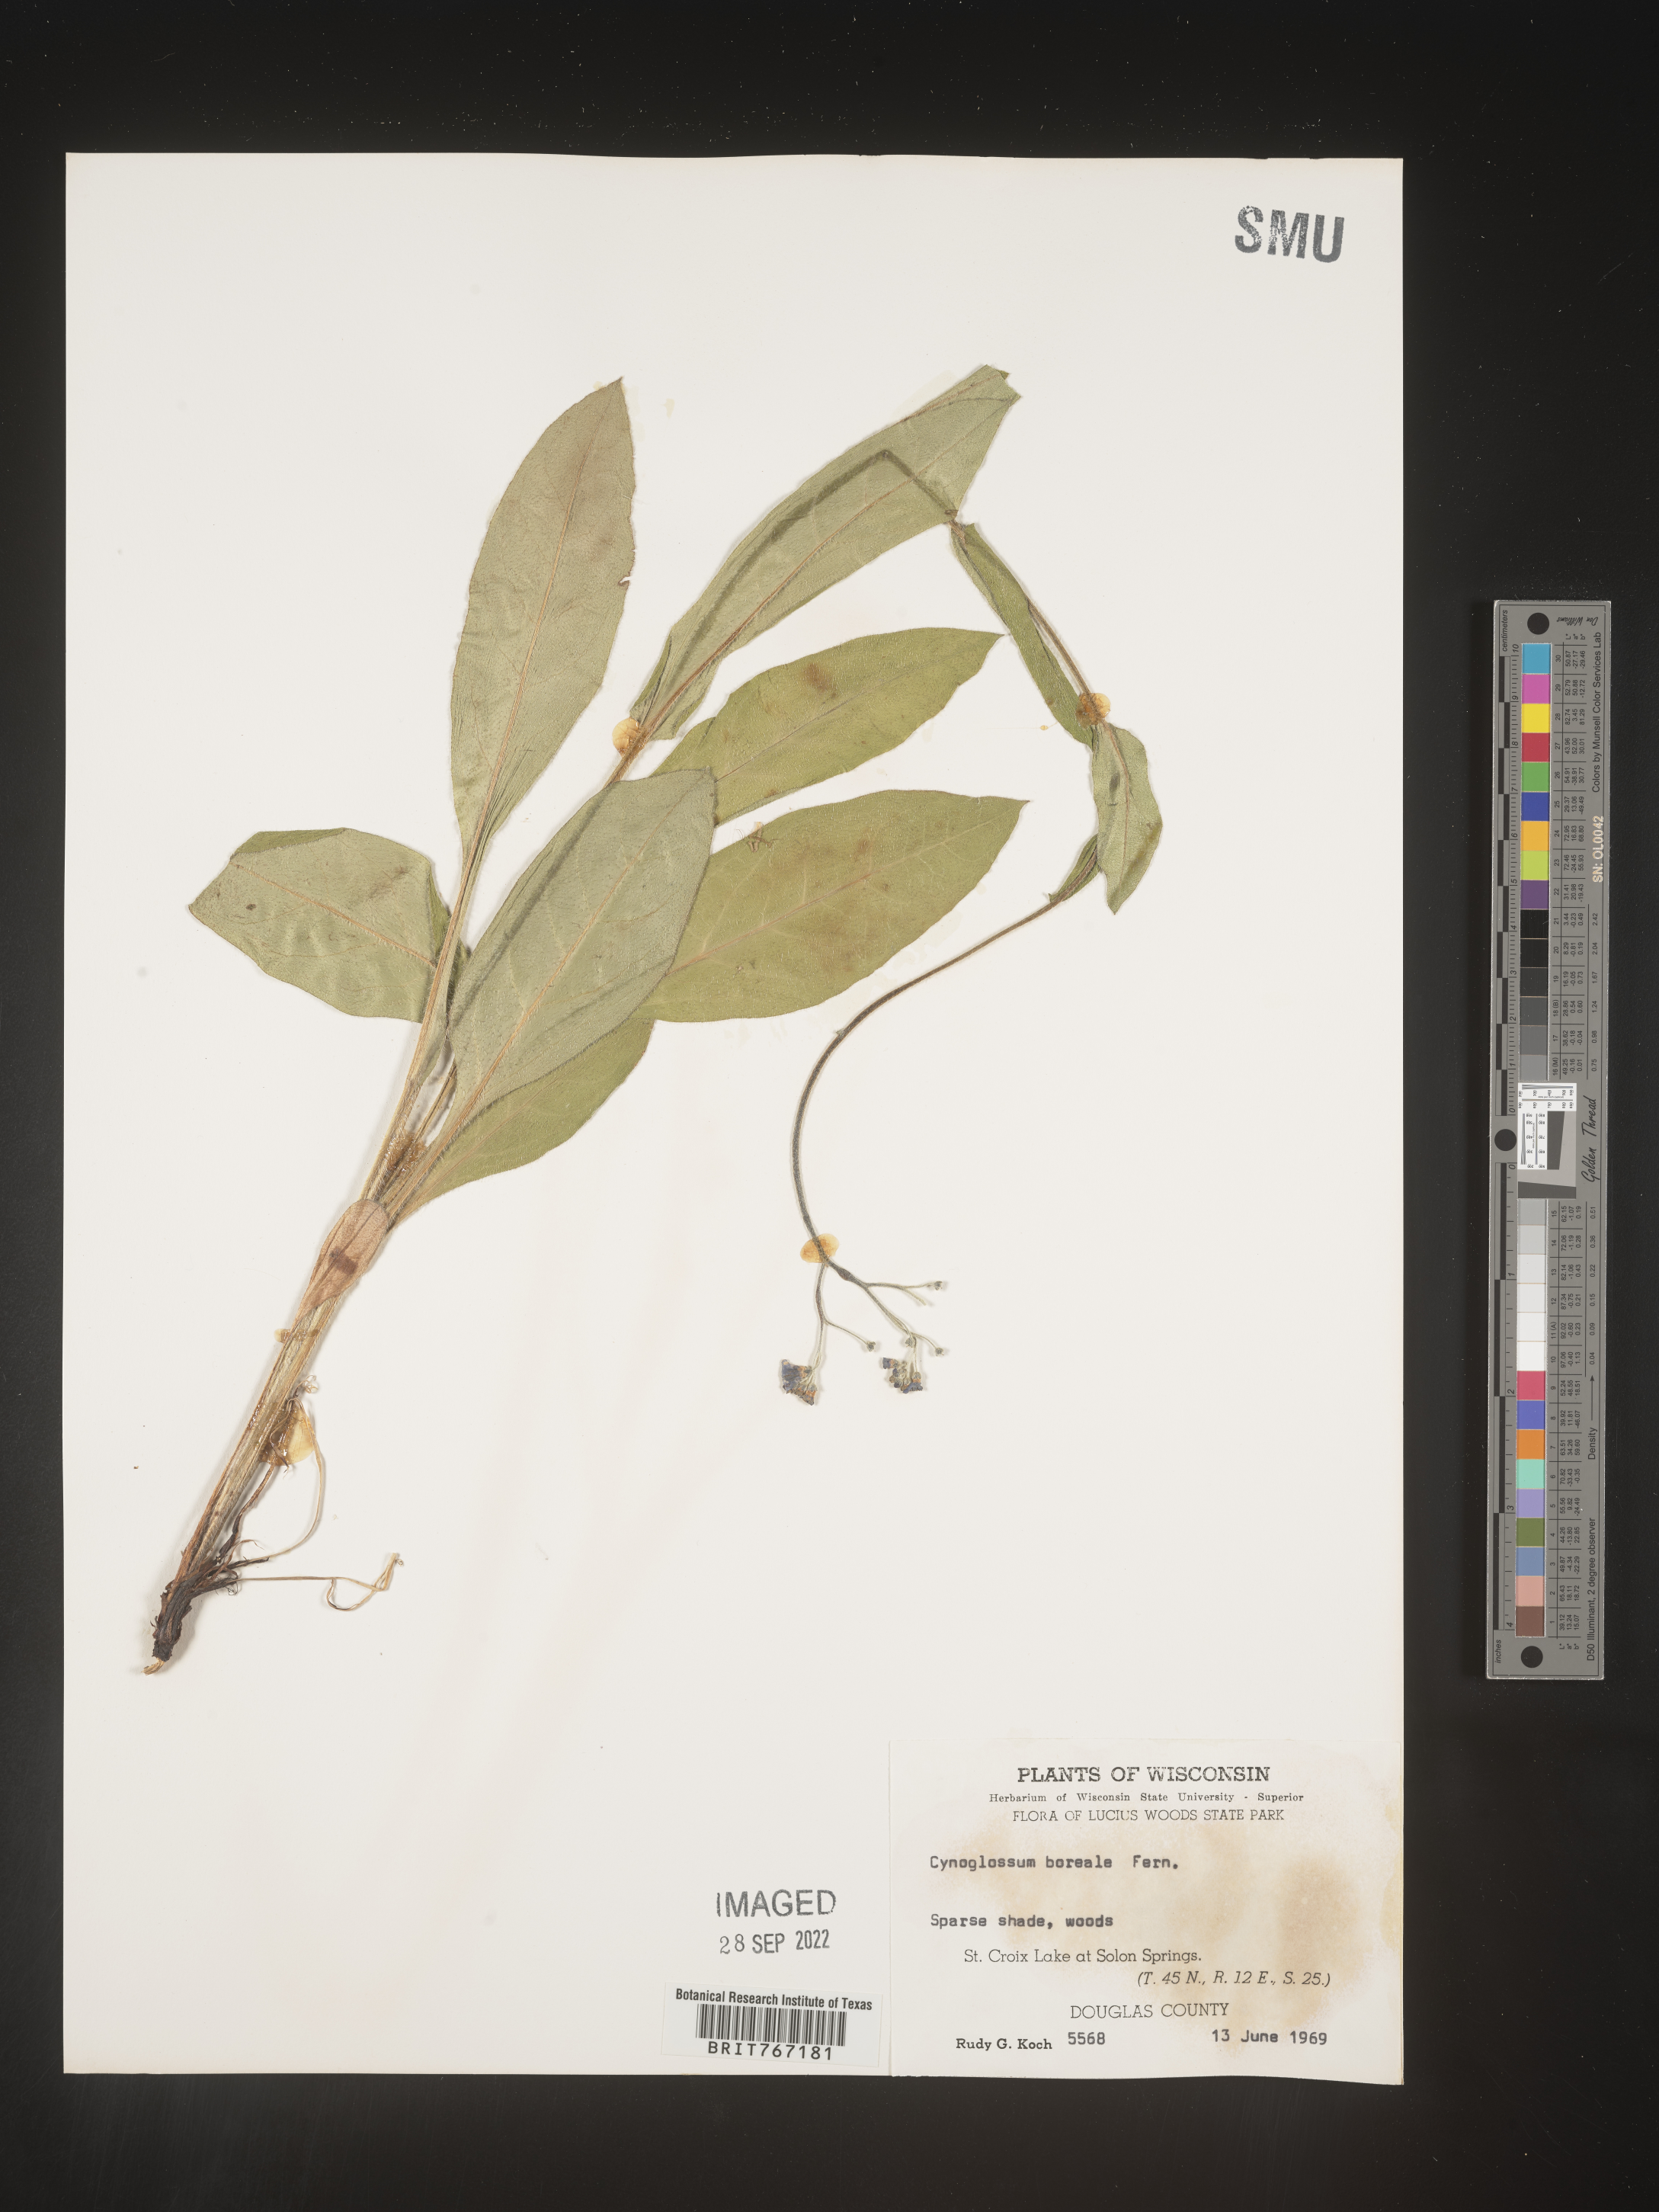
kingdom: Plantae
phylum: Tracheophyta
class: Magnoliopsida
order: Boraginales
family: Boraginaceae
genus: Cynoglossum
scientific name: Cynoglossum
